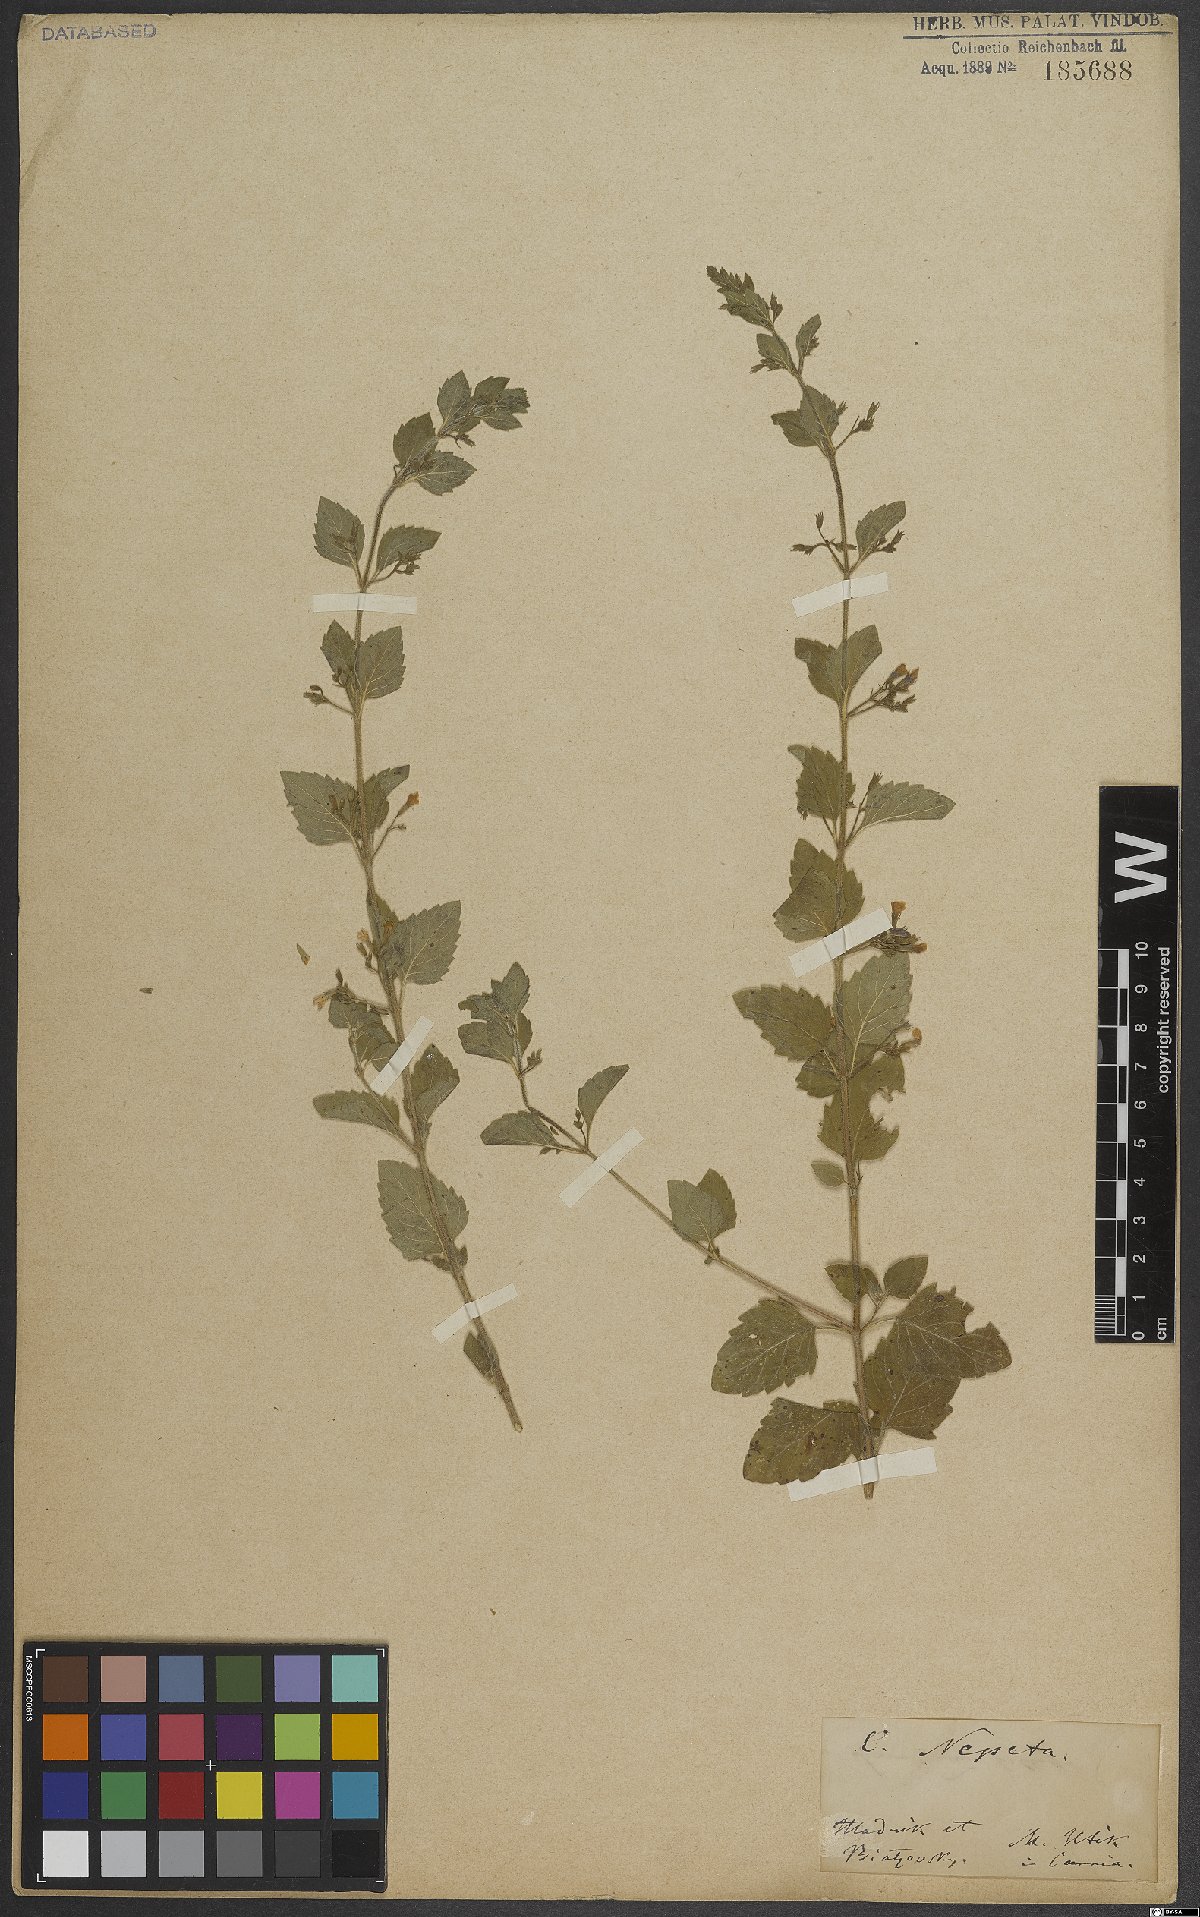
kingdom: Plantae
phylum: Tracheophyta
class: Magnoliopsida
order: Lamiales
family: Lamiaceae
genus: Clinopodium
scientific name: Clinopodium nepeta
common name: Lesser calamint
